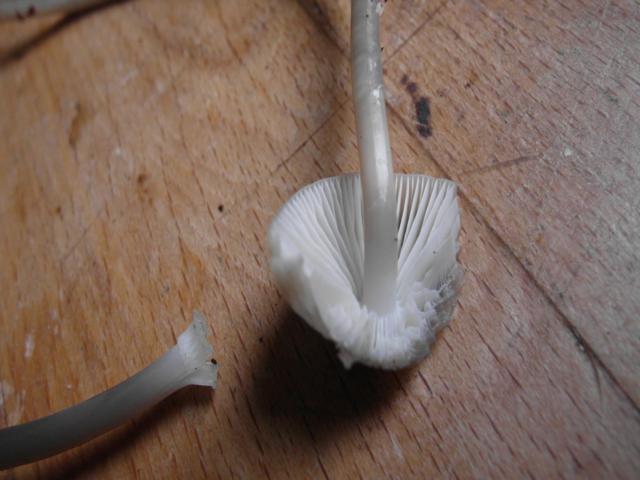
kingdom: Fungi
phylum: Basidiomycota
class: Agaricomycetes
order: Agaricales
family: Mycenaceae
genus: Mycena
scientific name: Mycena galericulata
